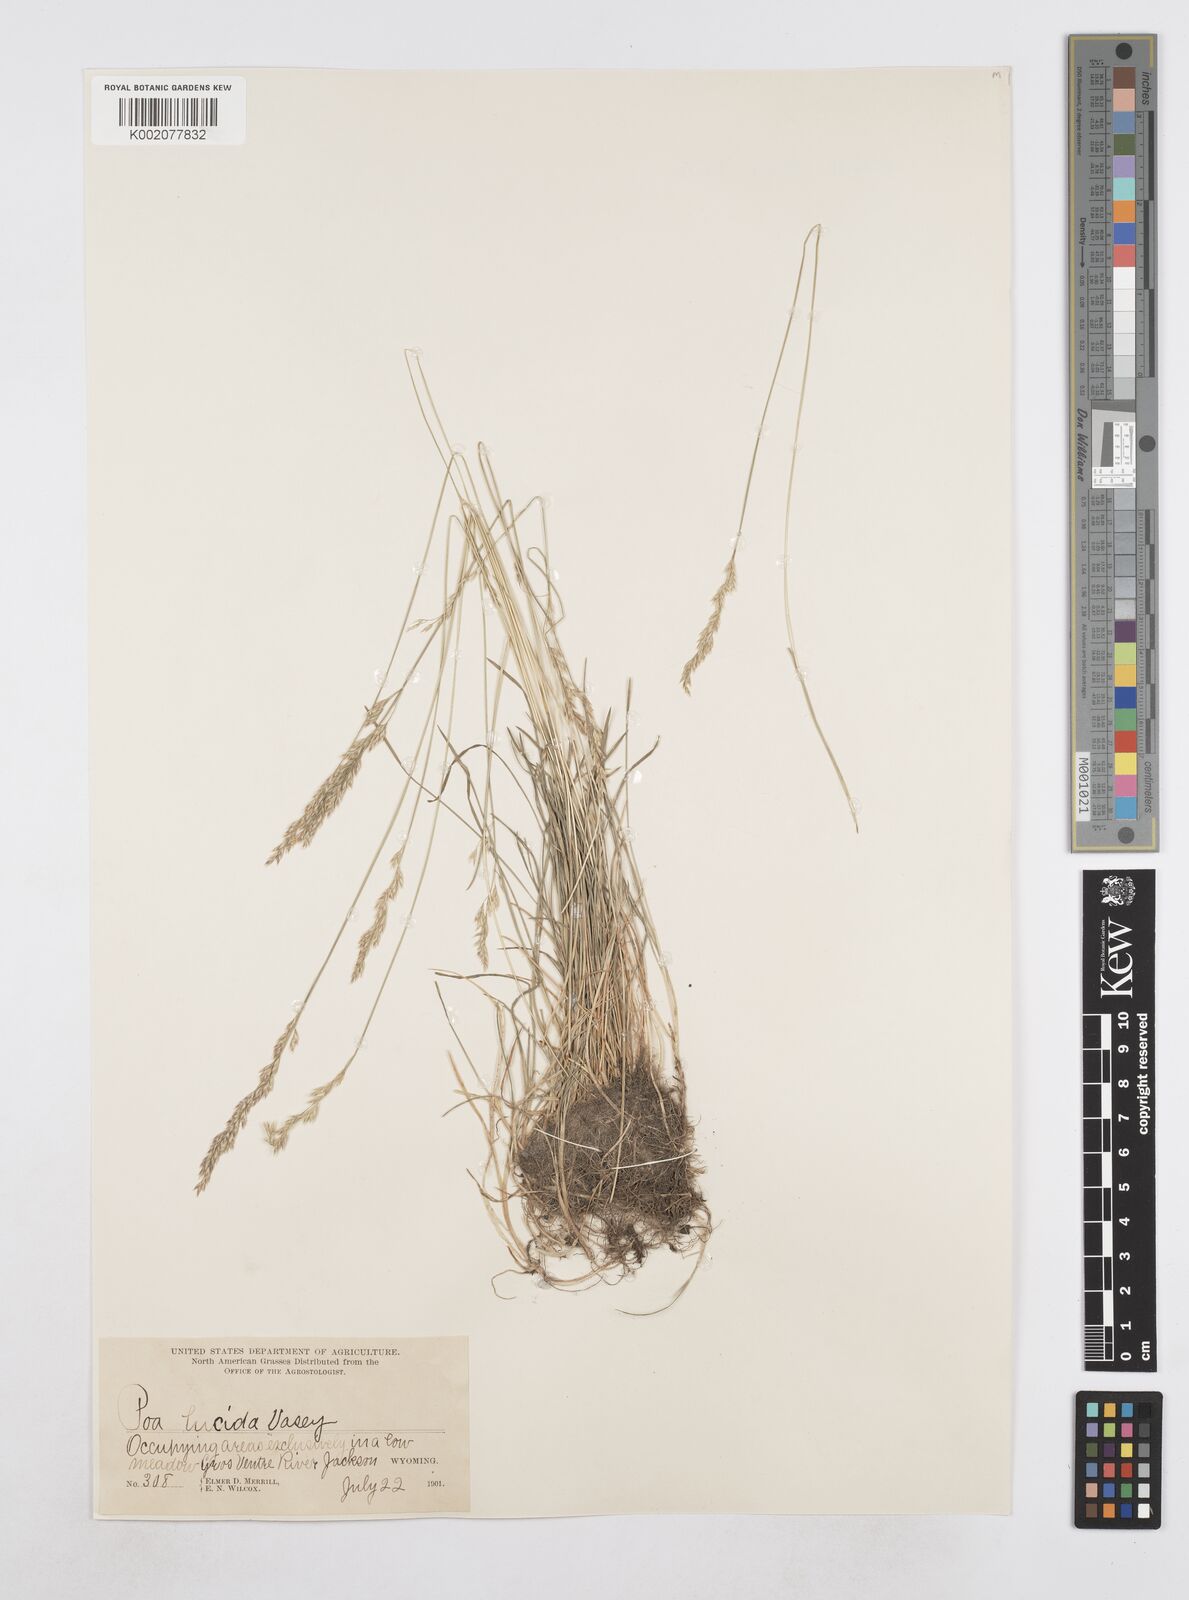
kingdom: Plantae
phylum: Tracheophyta
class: Liliopsida
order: Poales
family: Poaceae
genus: Poa
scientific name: Poa secunda
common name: Sandberg bluegrass
